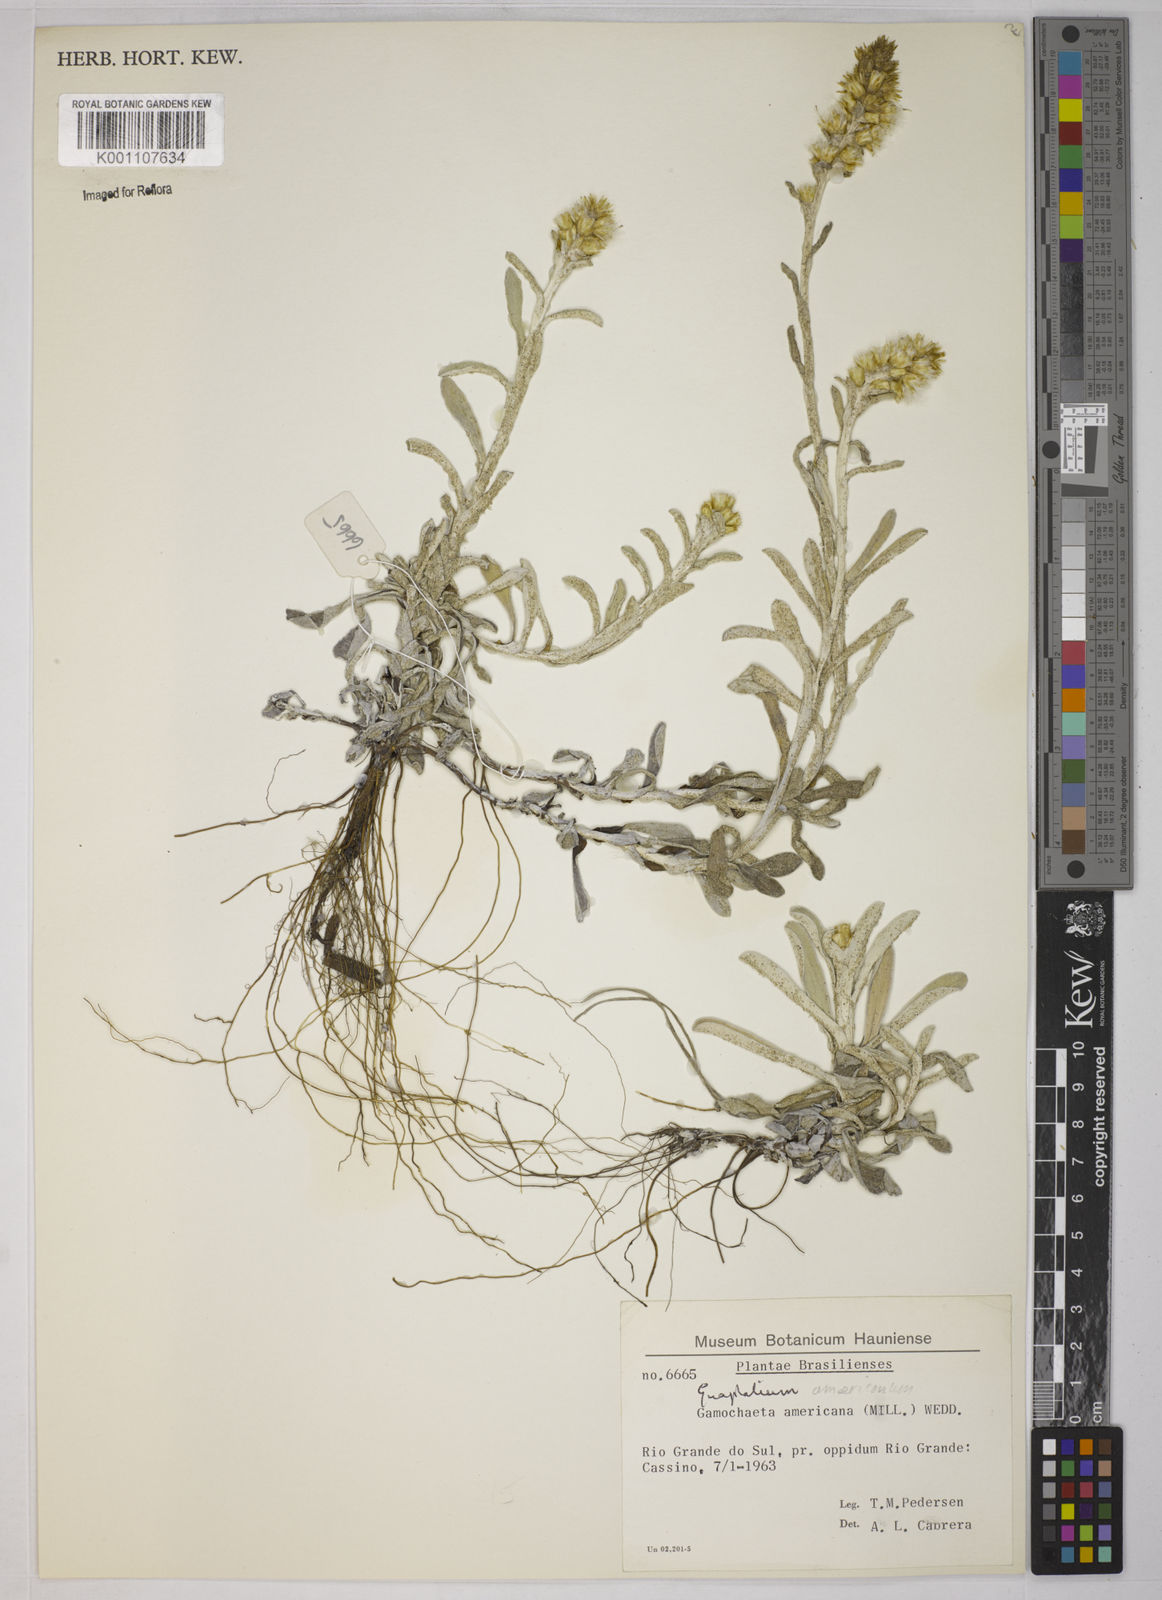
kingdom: Plantae
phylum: Tracheophyta
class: Magnoliopsida
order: Asterales
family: Asteraceae
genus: Gamochaeta
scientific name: Gamochaeta americana
